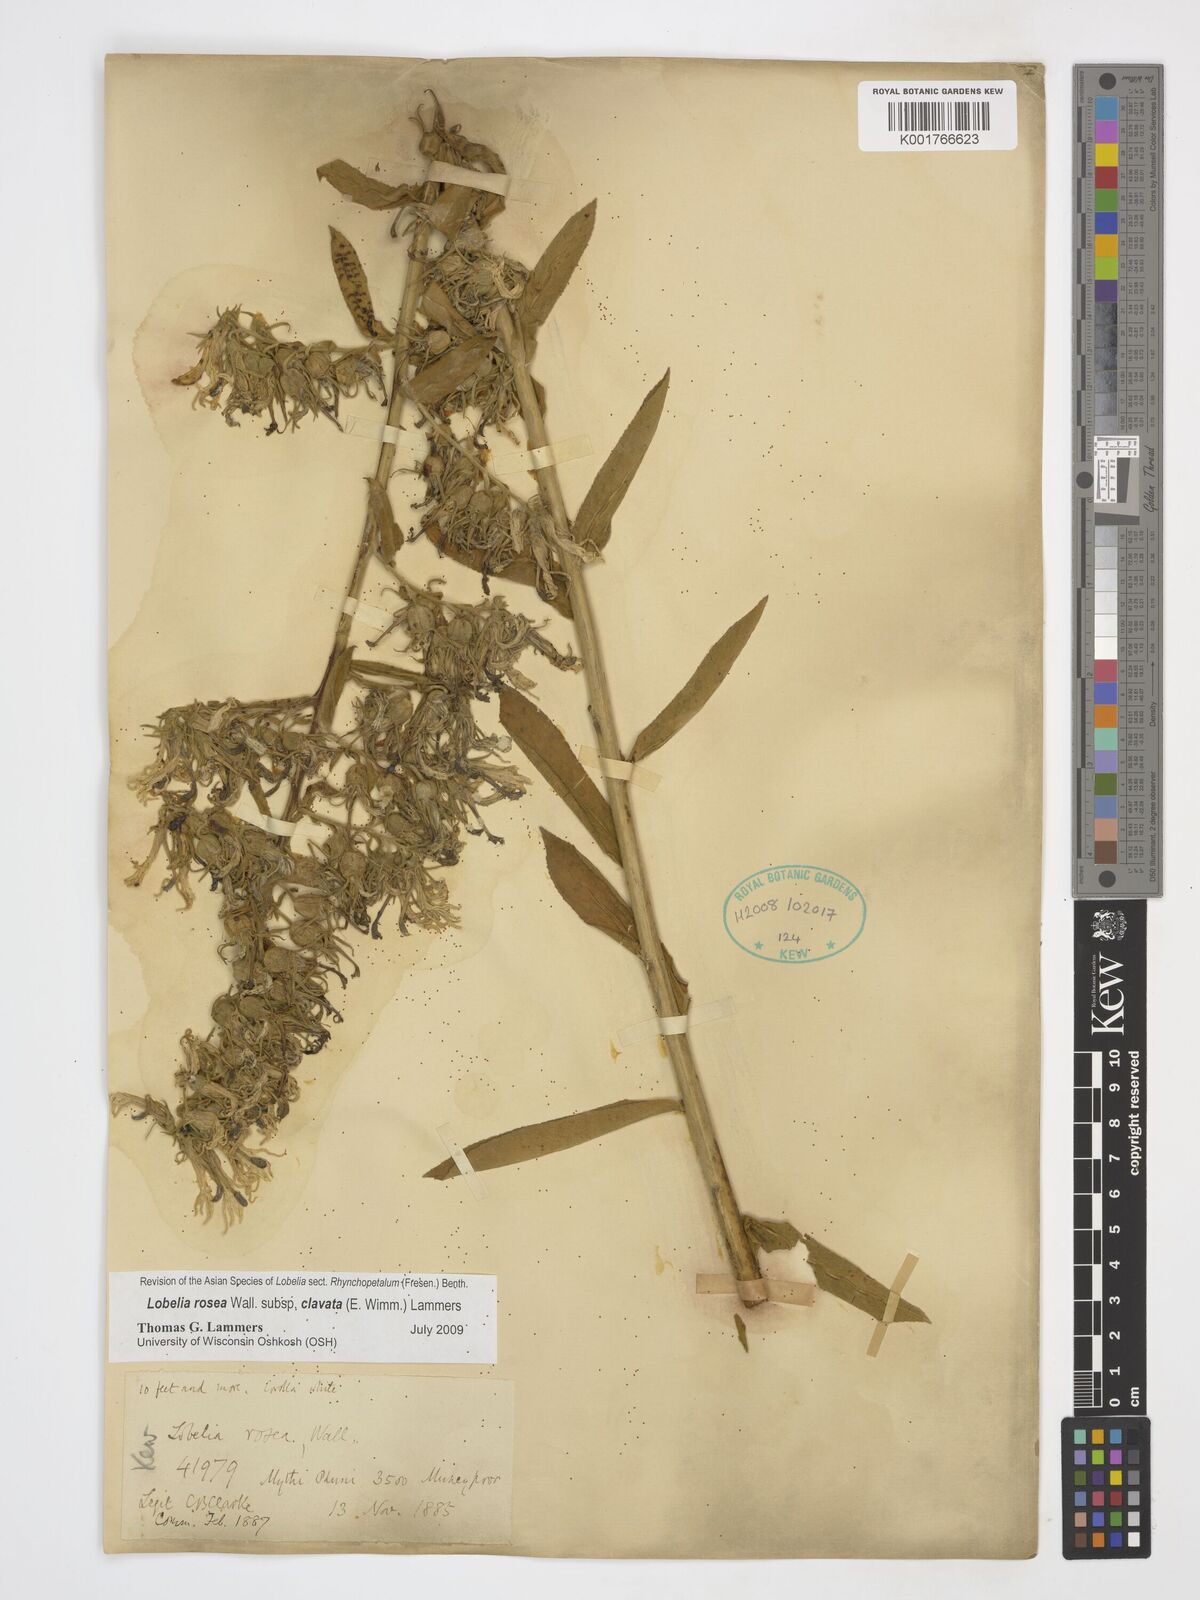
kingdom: Plantae
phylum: Tracheophyta
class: Magnoliopsida
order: Asterales
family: Campanulaceae
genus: Lobelia
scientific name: Lobelia rosea
